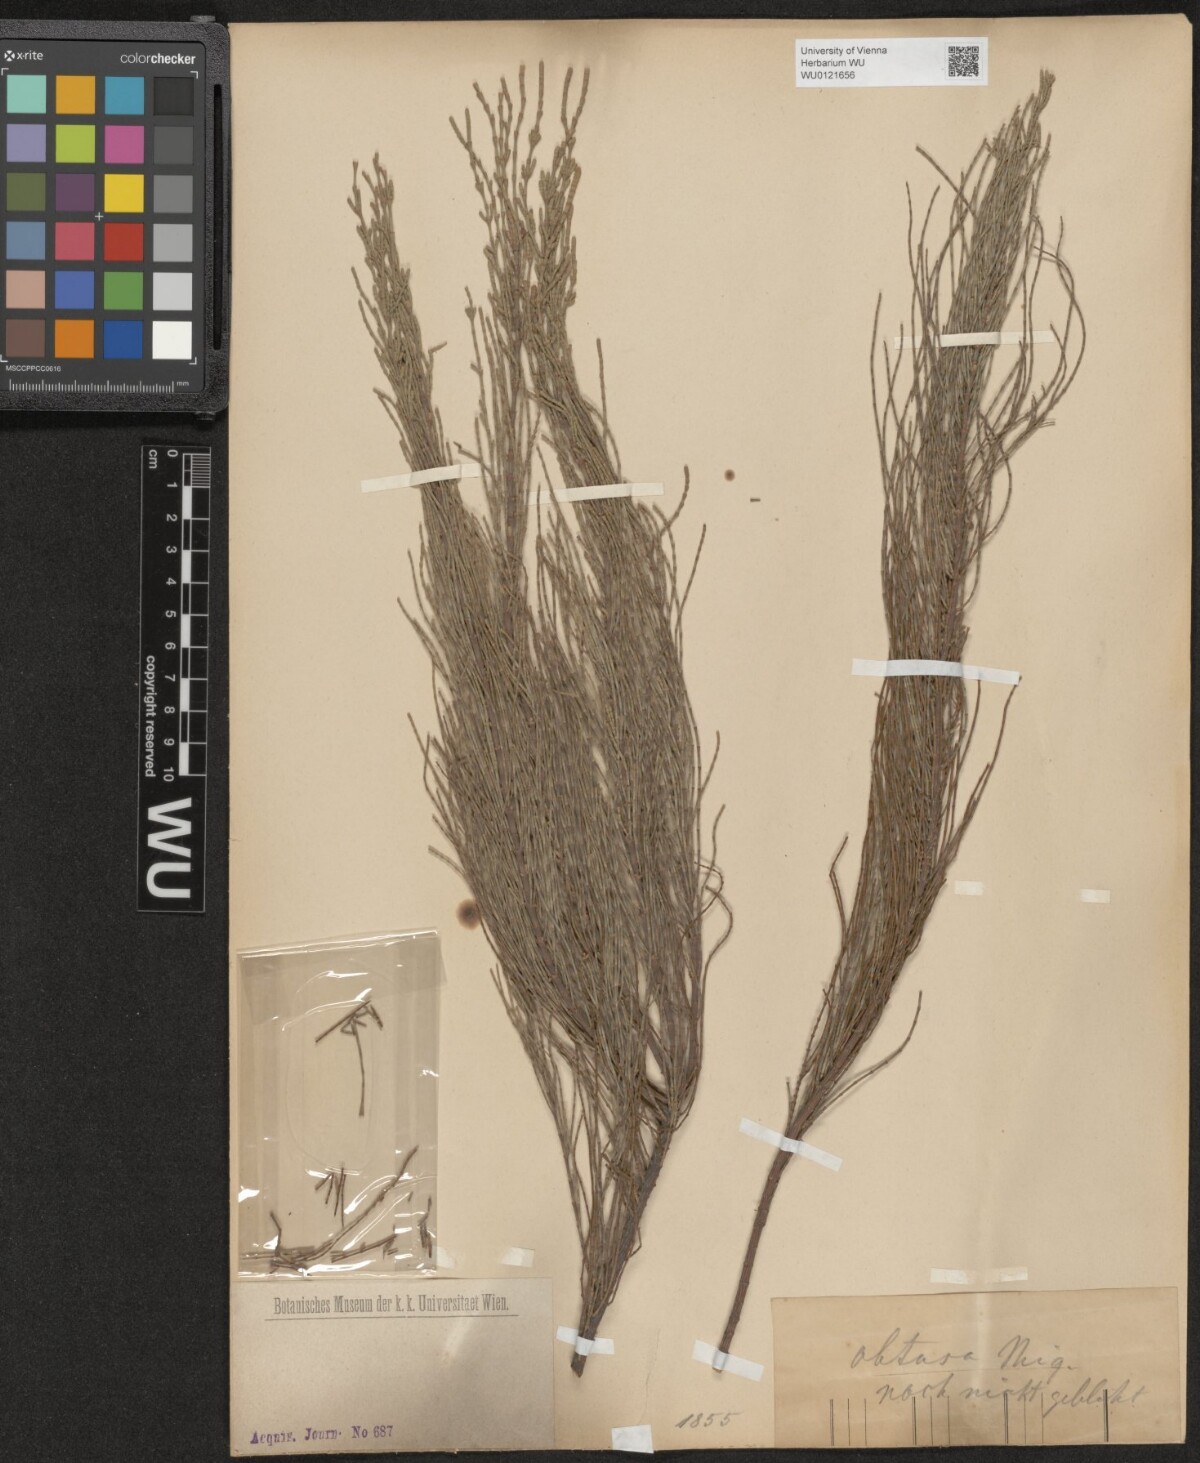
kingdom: Plantae
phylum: Tracheophyta
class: Magnoliopsida
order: Fagales
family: Casuarinaceae
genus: Casuarina
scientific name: Casuarina glauca
